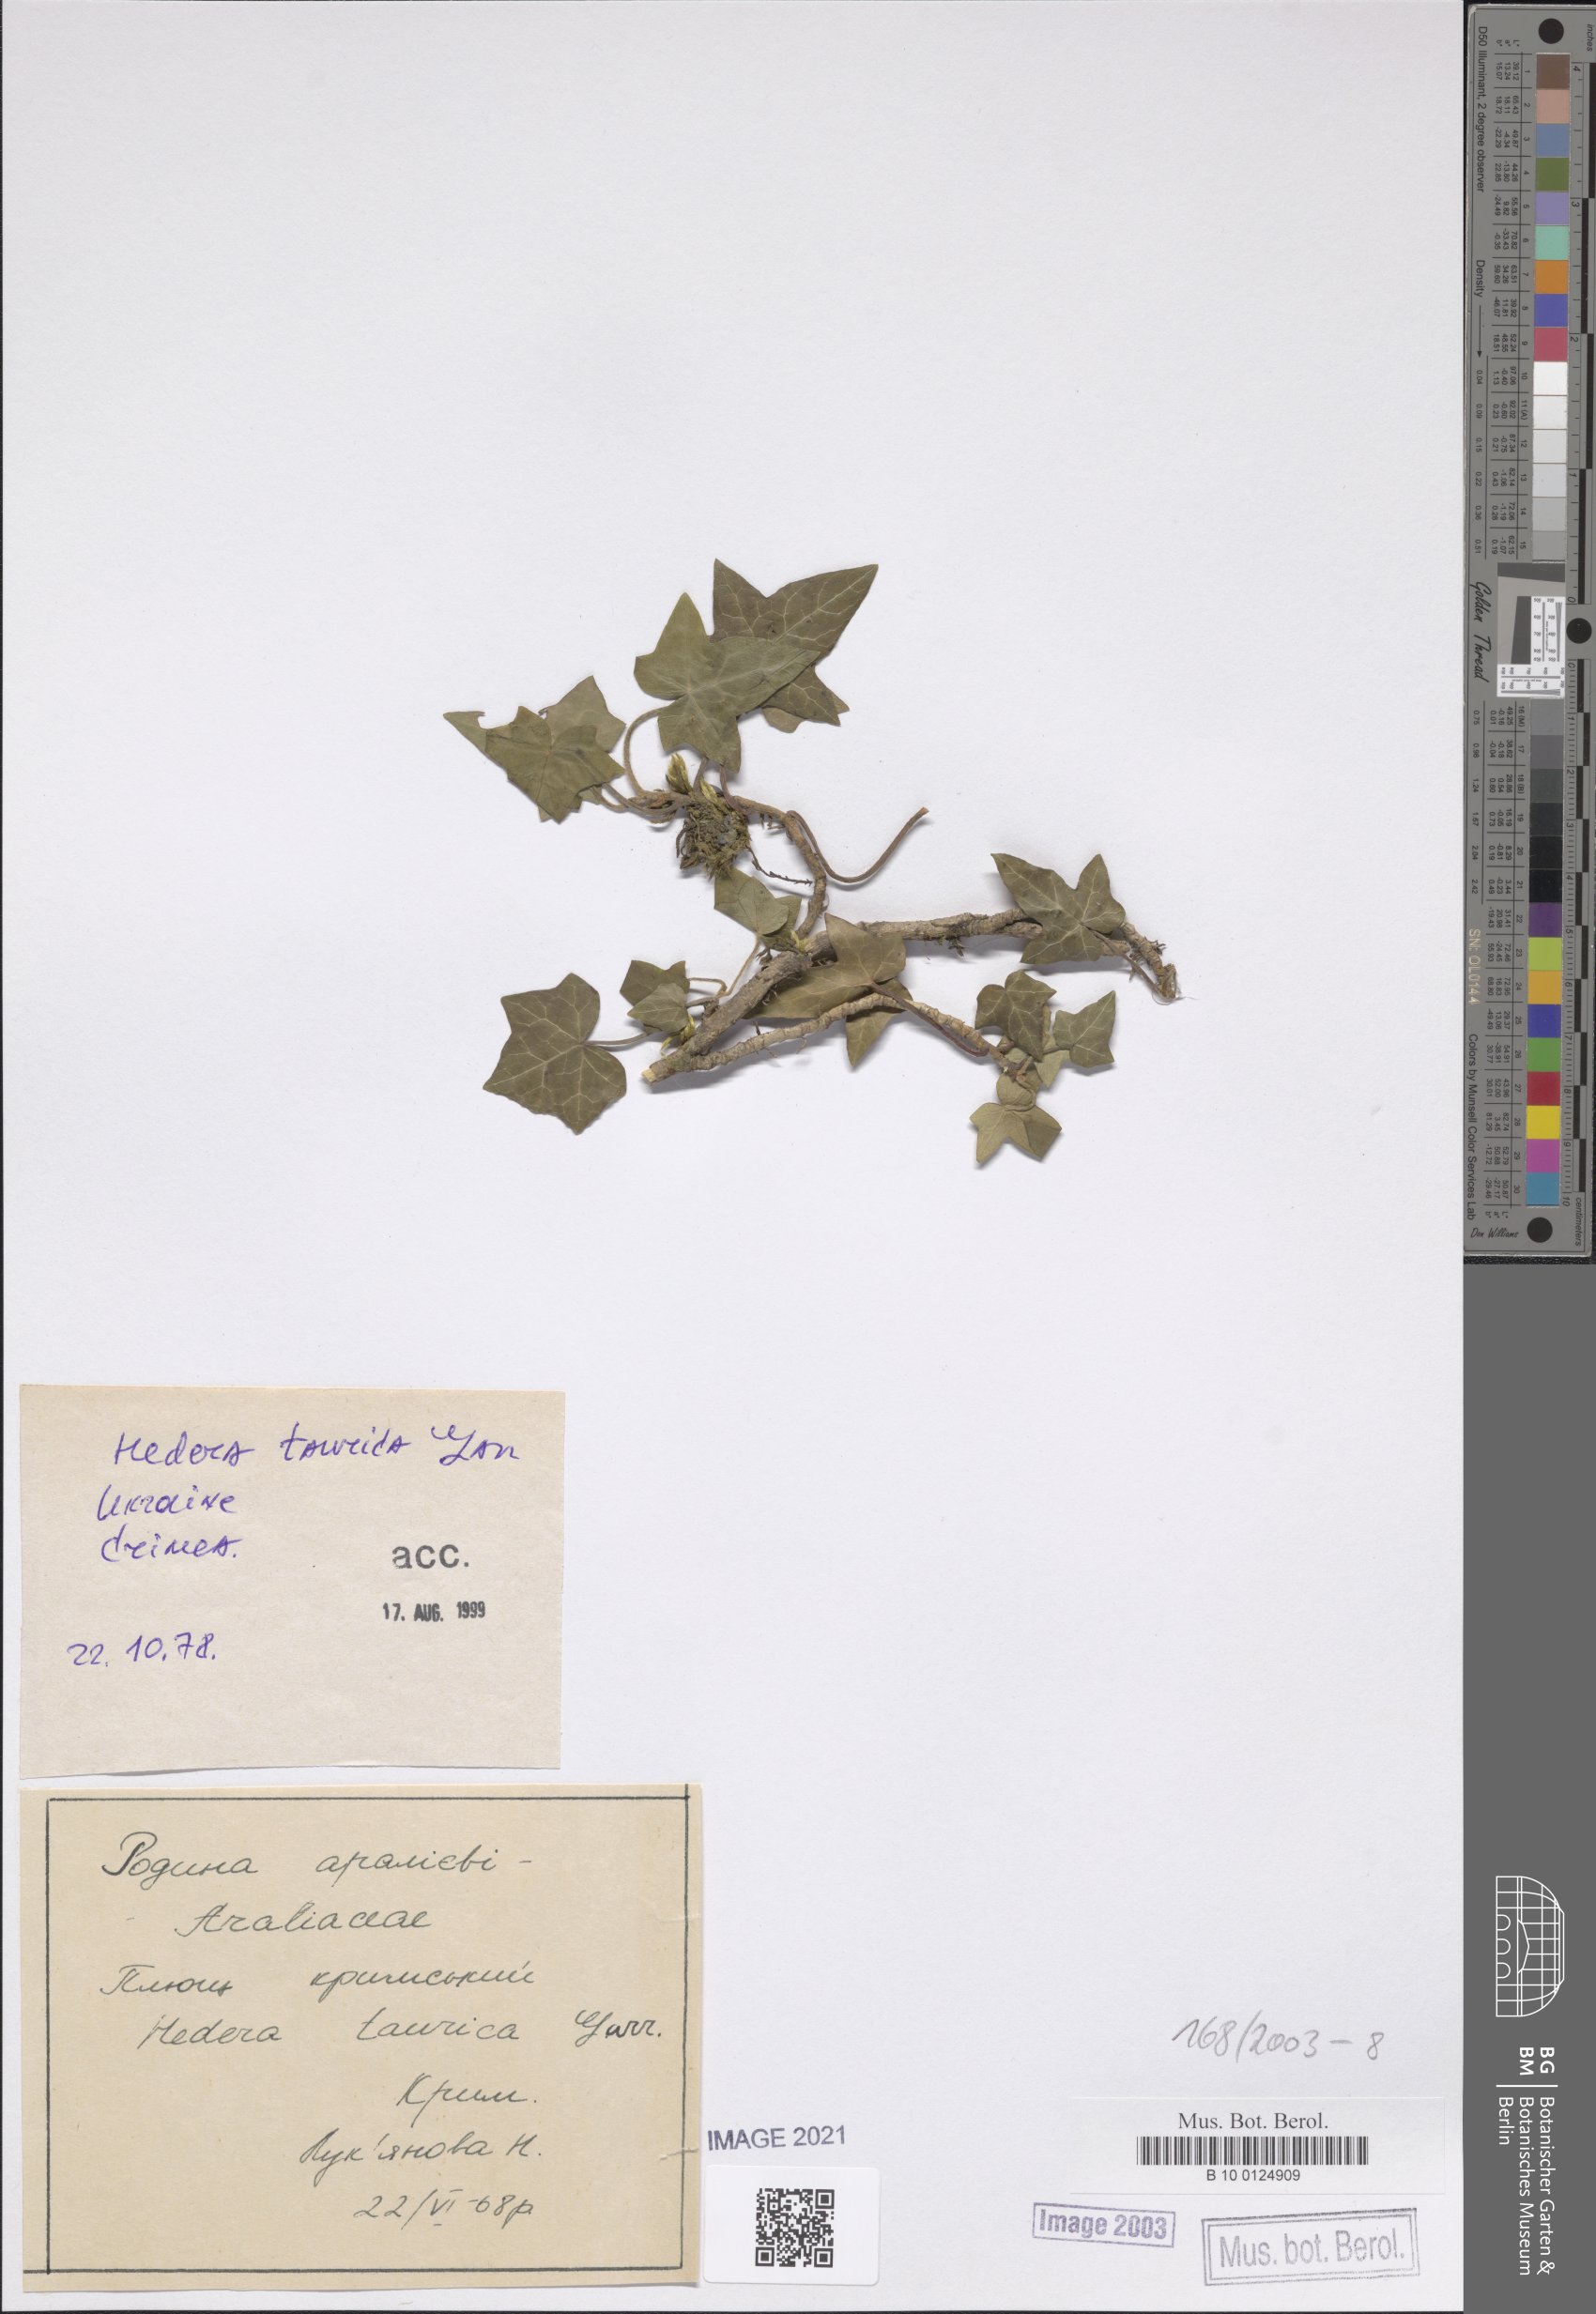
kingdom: Plantae
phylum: Tracheophyta
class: Magnoliopsida
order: Apiales
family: Araliaceae
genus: Hedera
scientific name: Hedera helix
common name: Ivy
